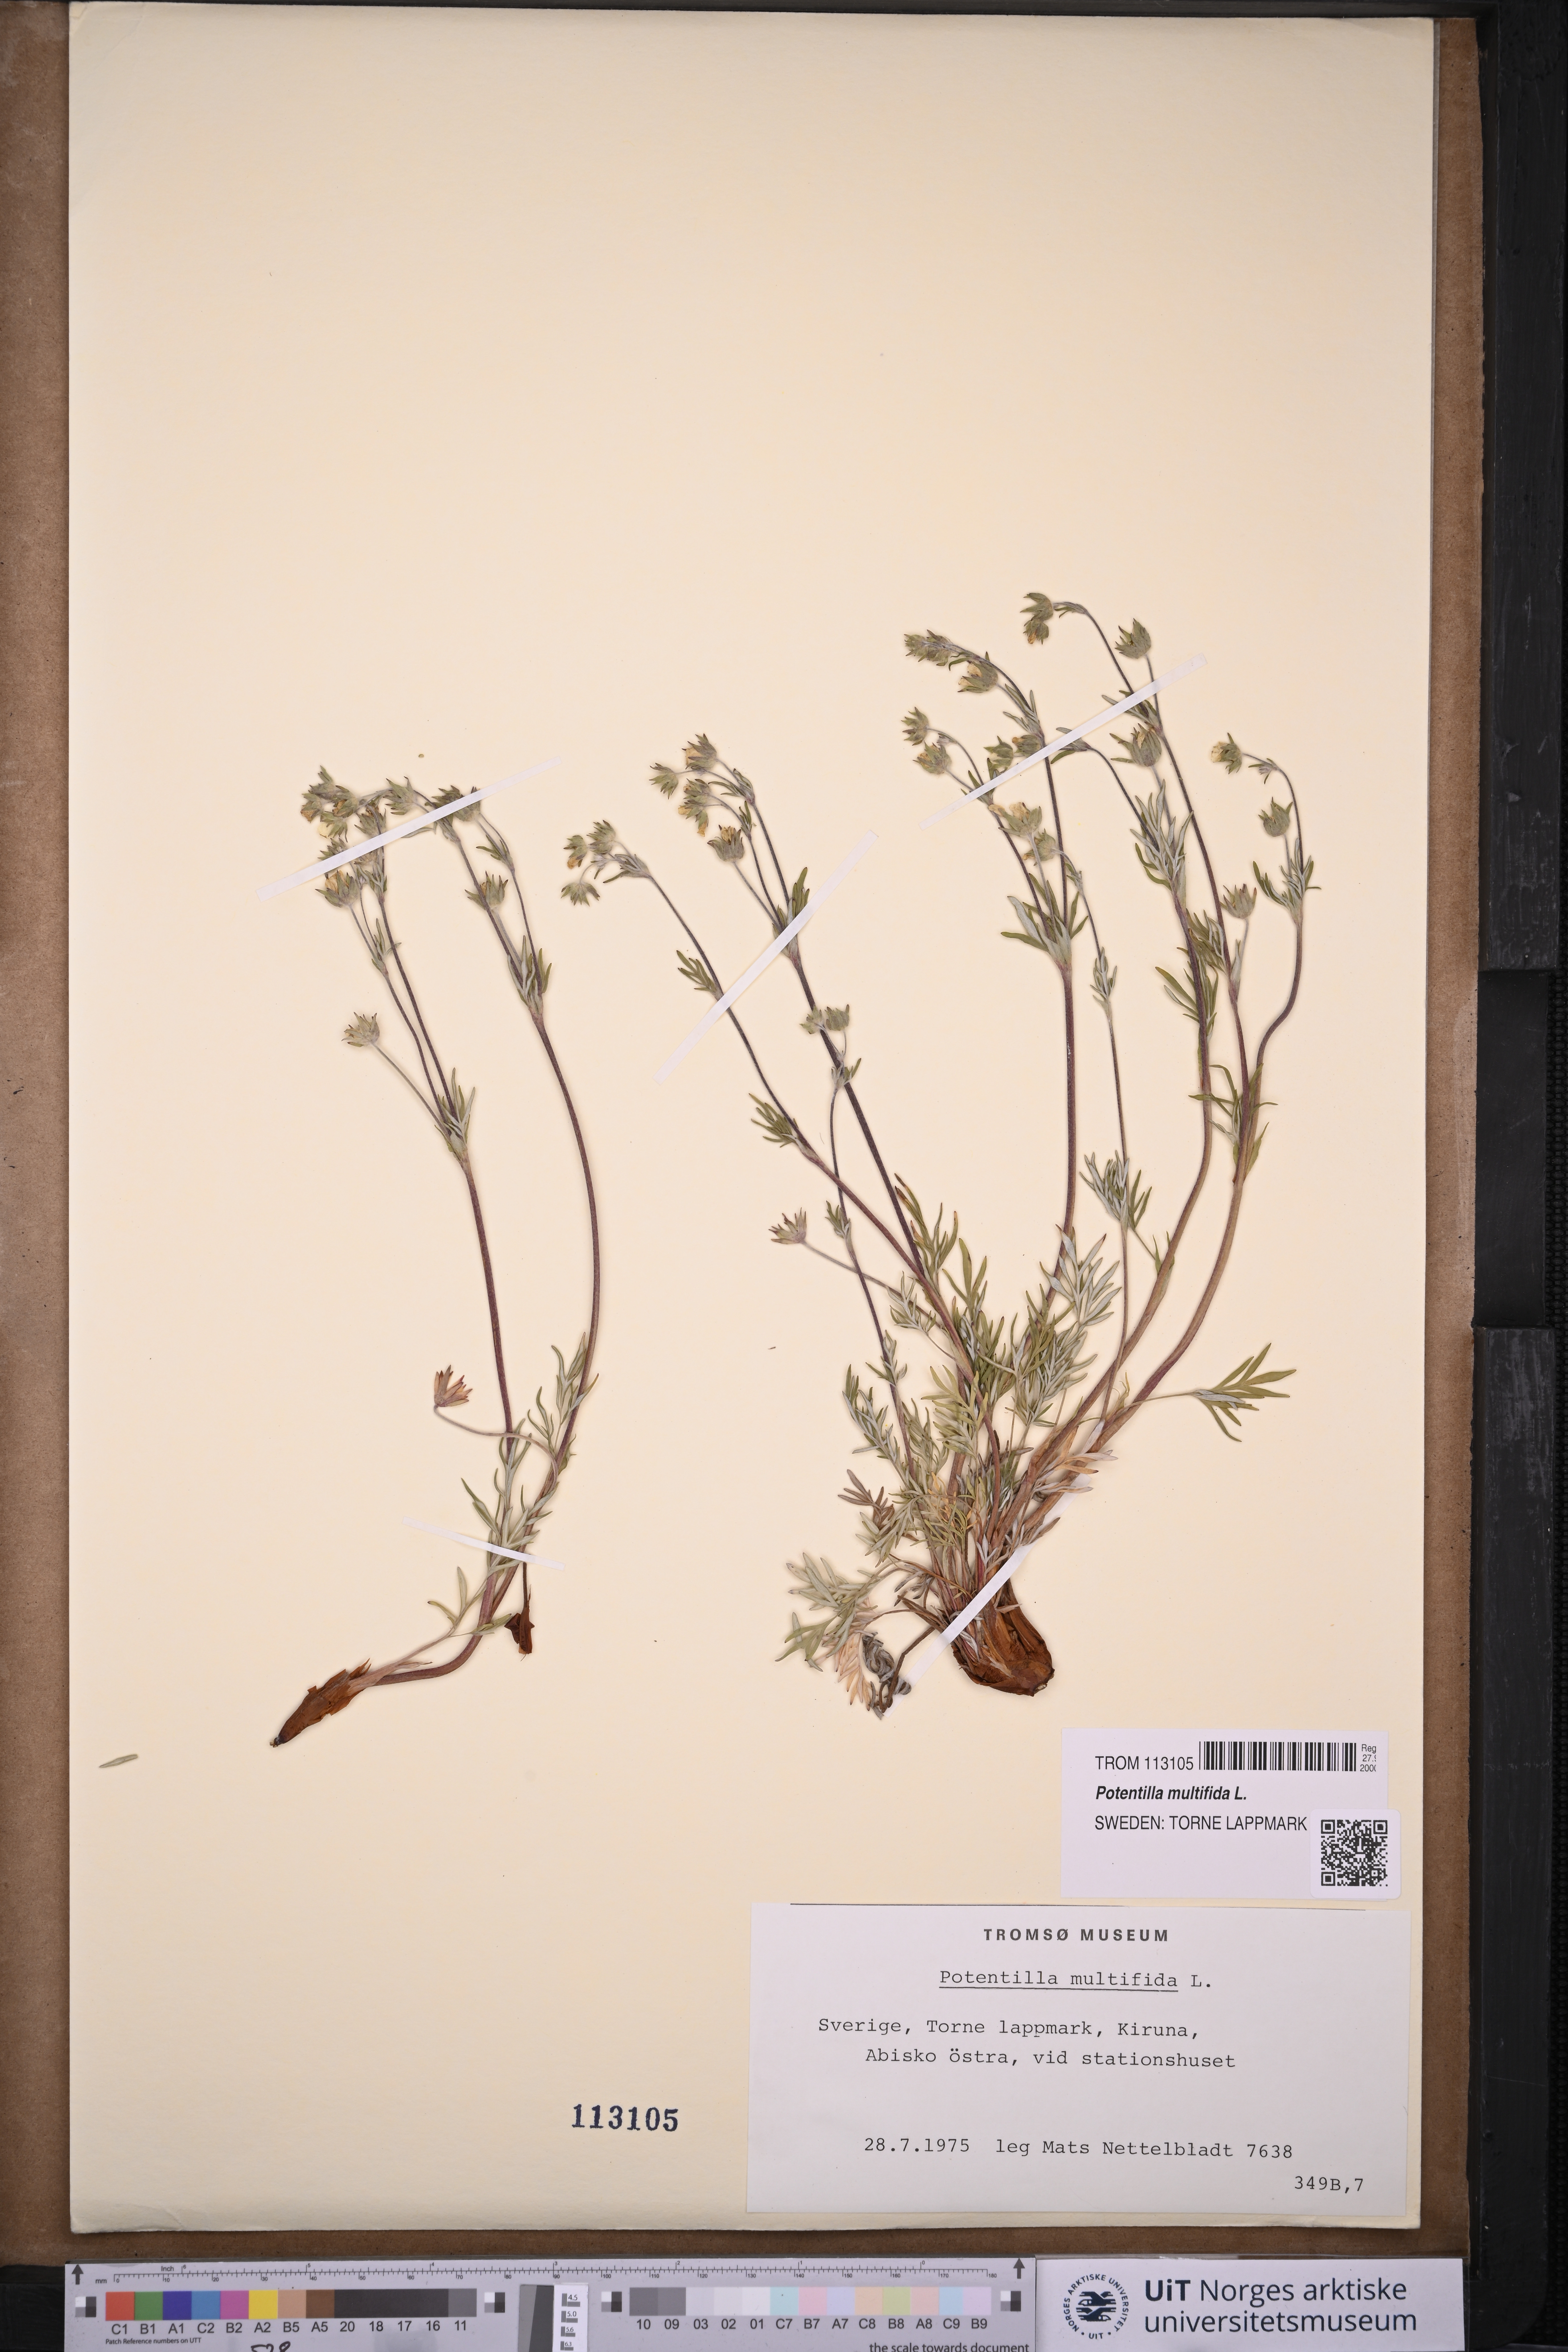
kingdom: Plantae
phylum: Tracheophyta
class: Magnoliopsida
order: Rosales
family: Rosaceae
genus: Potentilla
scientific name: Potentilla multifida
